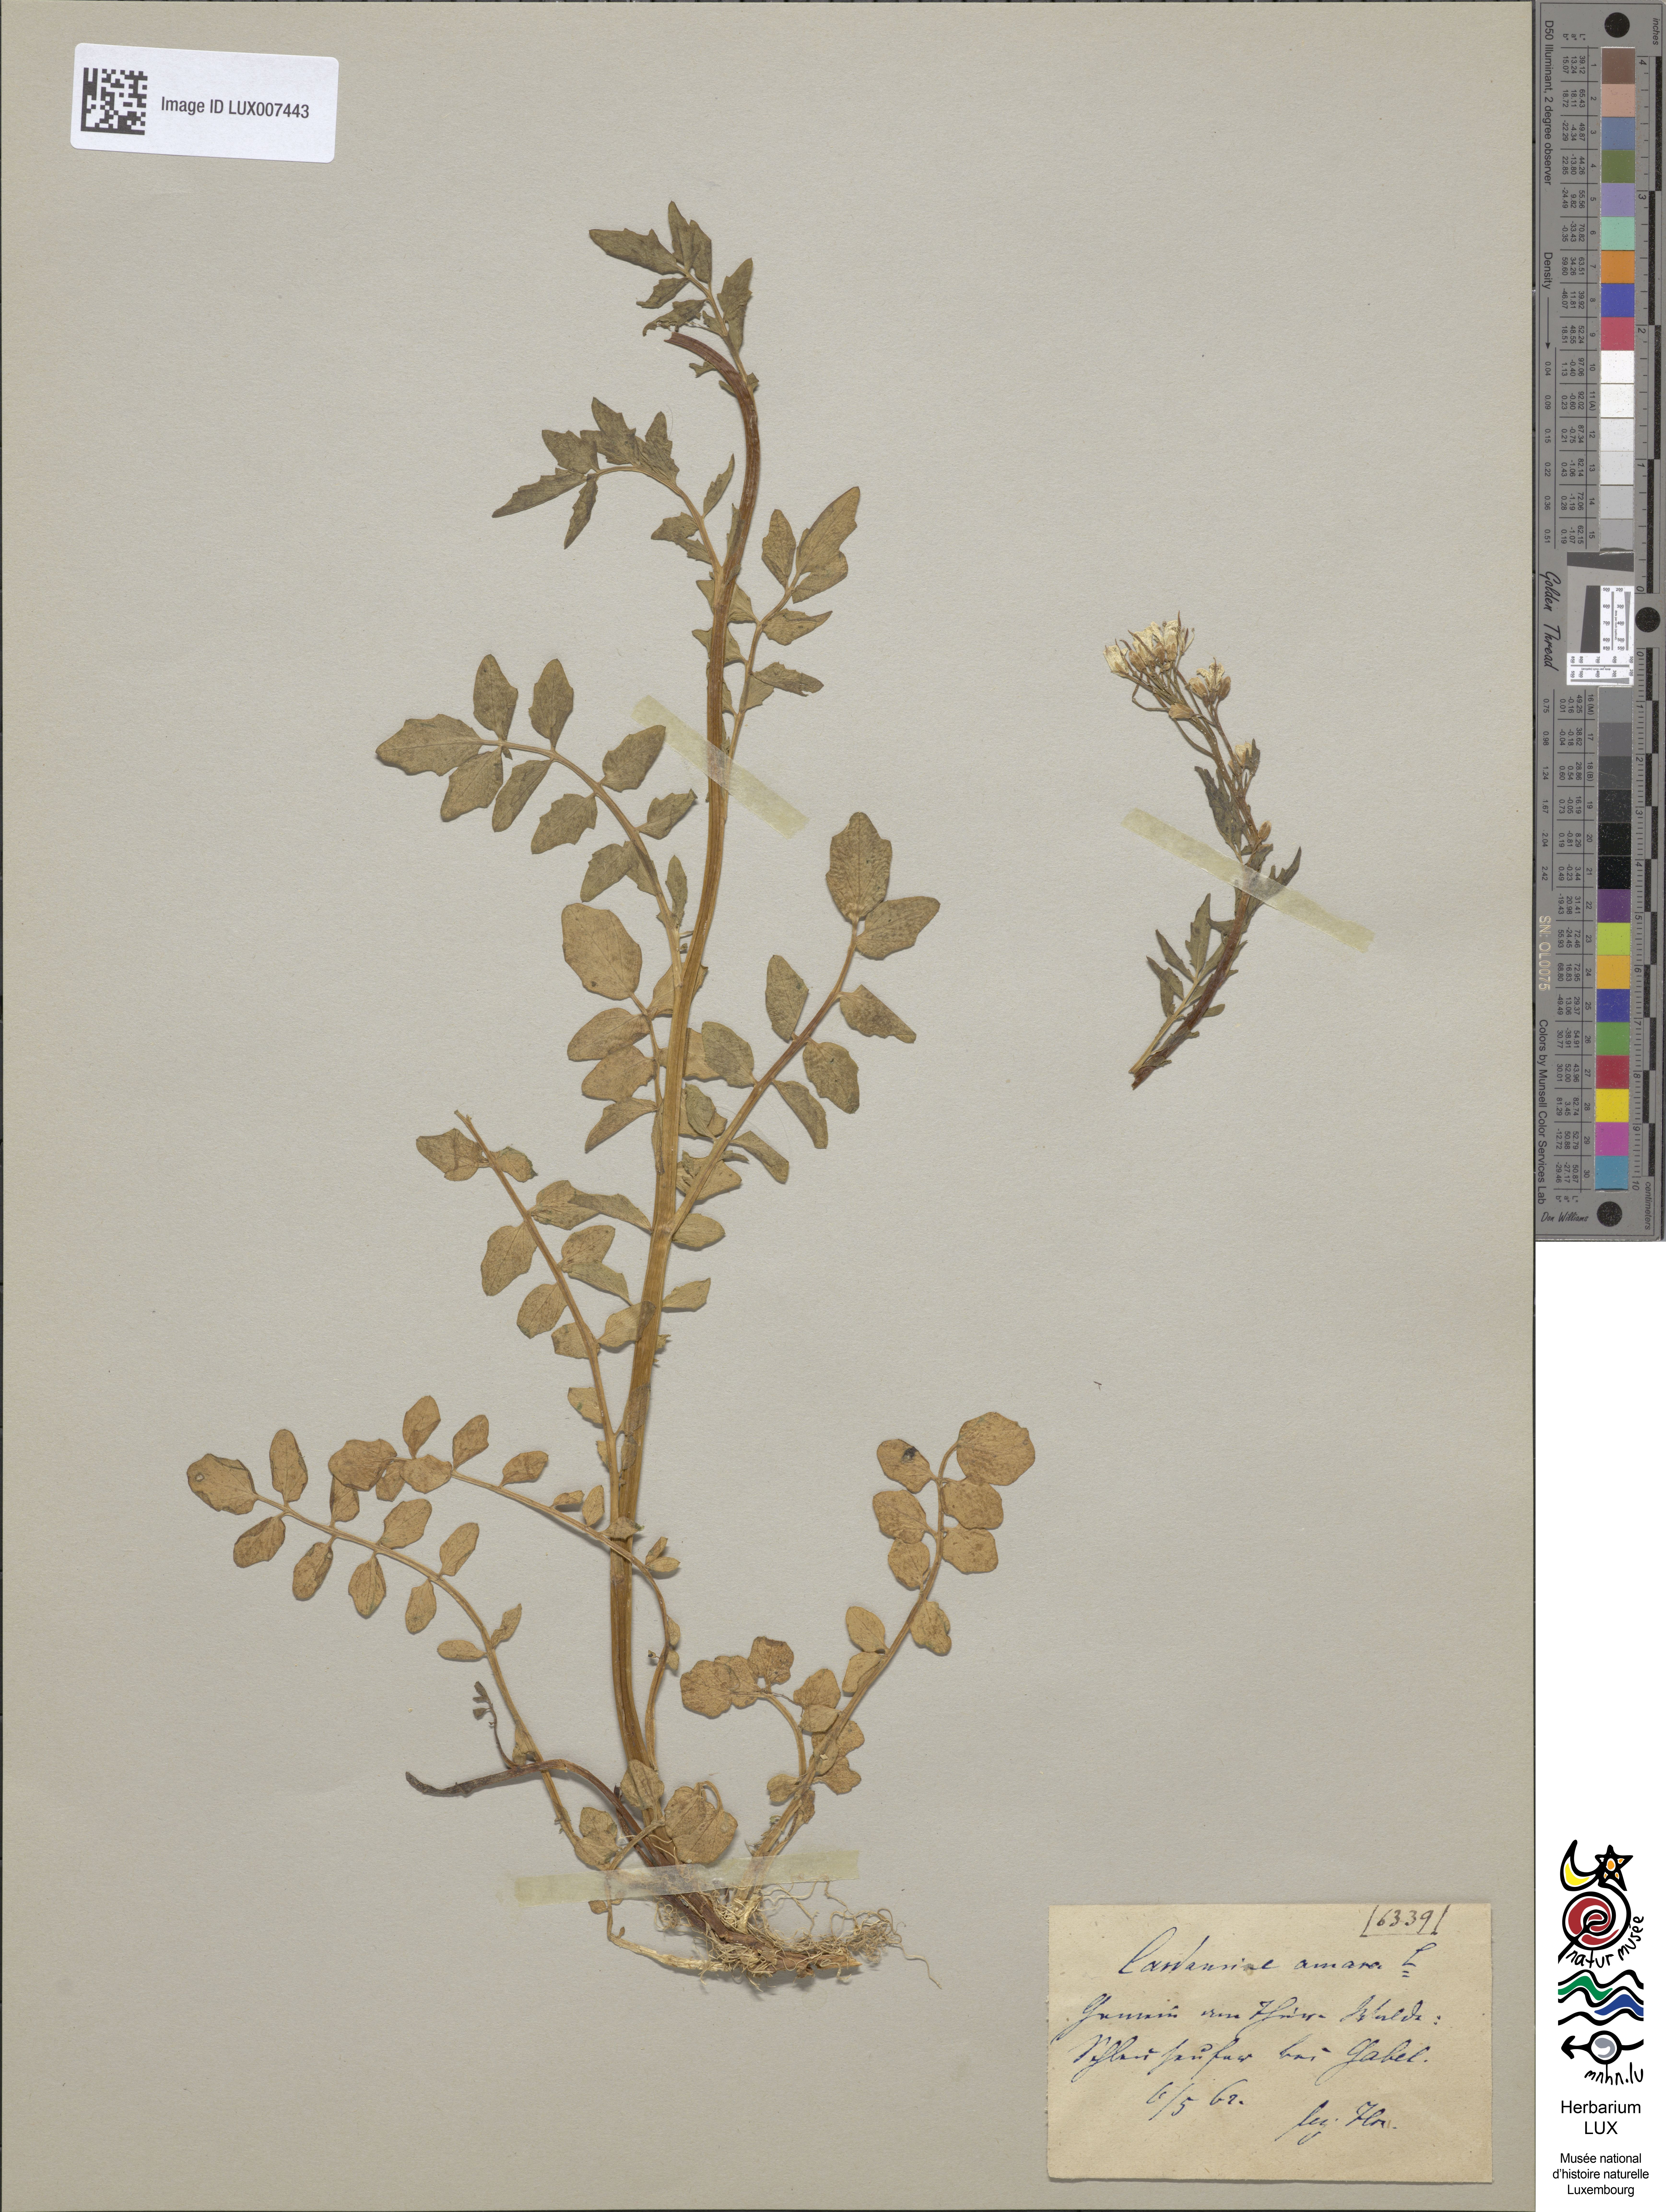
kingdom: Plantae
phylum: Tracheophyta
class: Magnoliopsida
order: Brassicales
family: Brassicaceae
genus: Cardamine
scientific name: Cardamine amara
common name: Large bitter-cress
